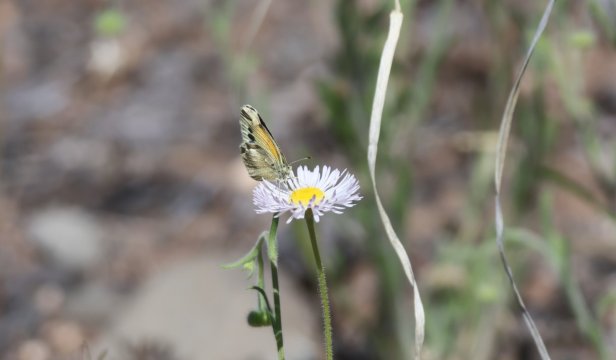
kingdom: Animalia
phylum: Arthropoda
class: Insecta
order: Lepidoptera
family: Pieridae
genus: Nathalis
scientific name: Nathalis iole
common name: Dainty Sulphur
